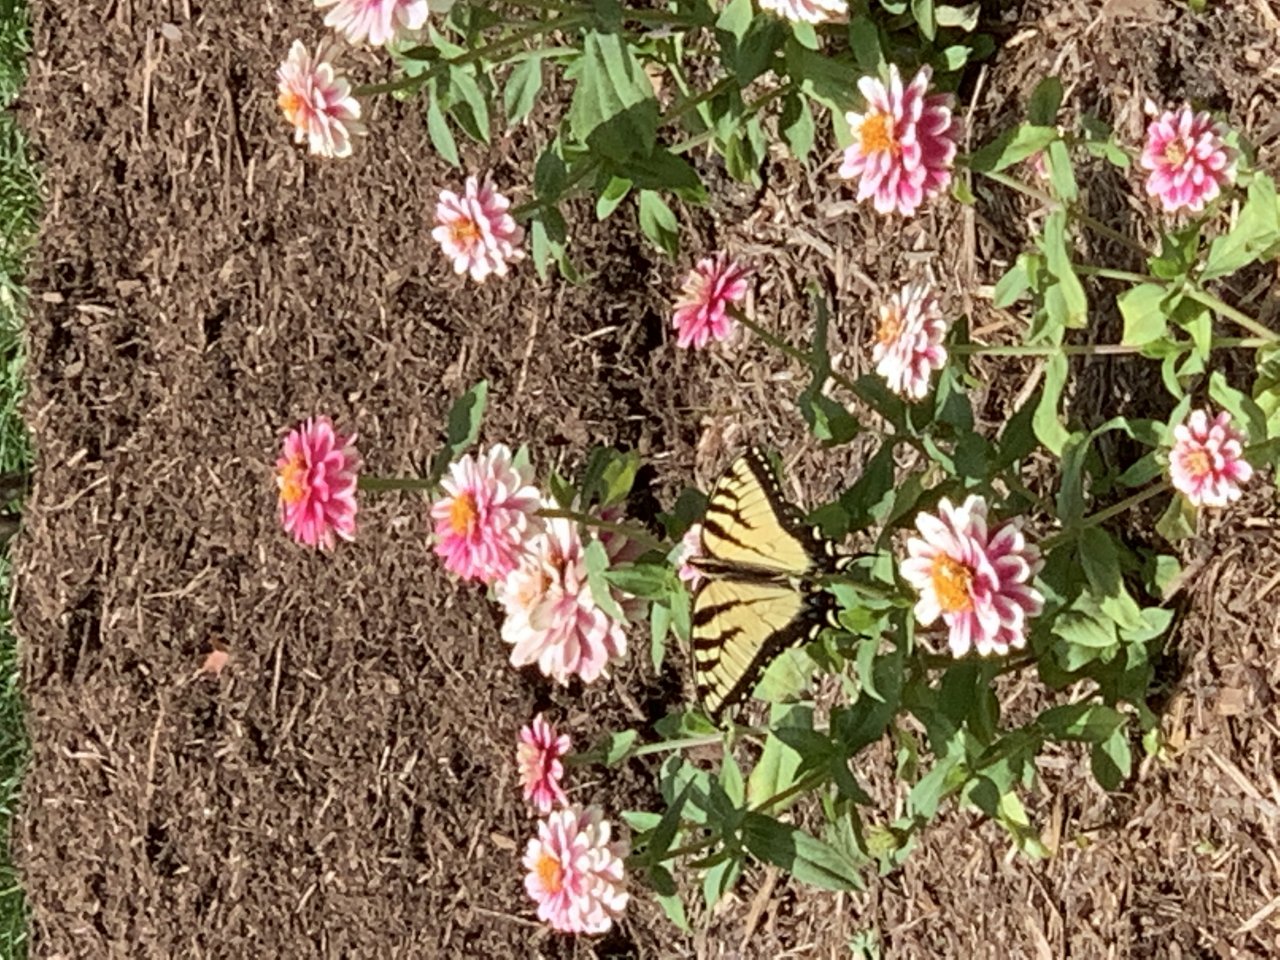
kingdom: Animalia
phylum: Arthropoda
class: Insecta
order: Lepidoptera
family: Papilionidae
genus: Pterourus
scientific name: Pterourus
